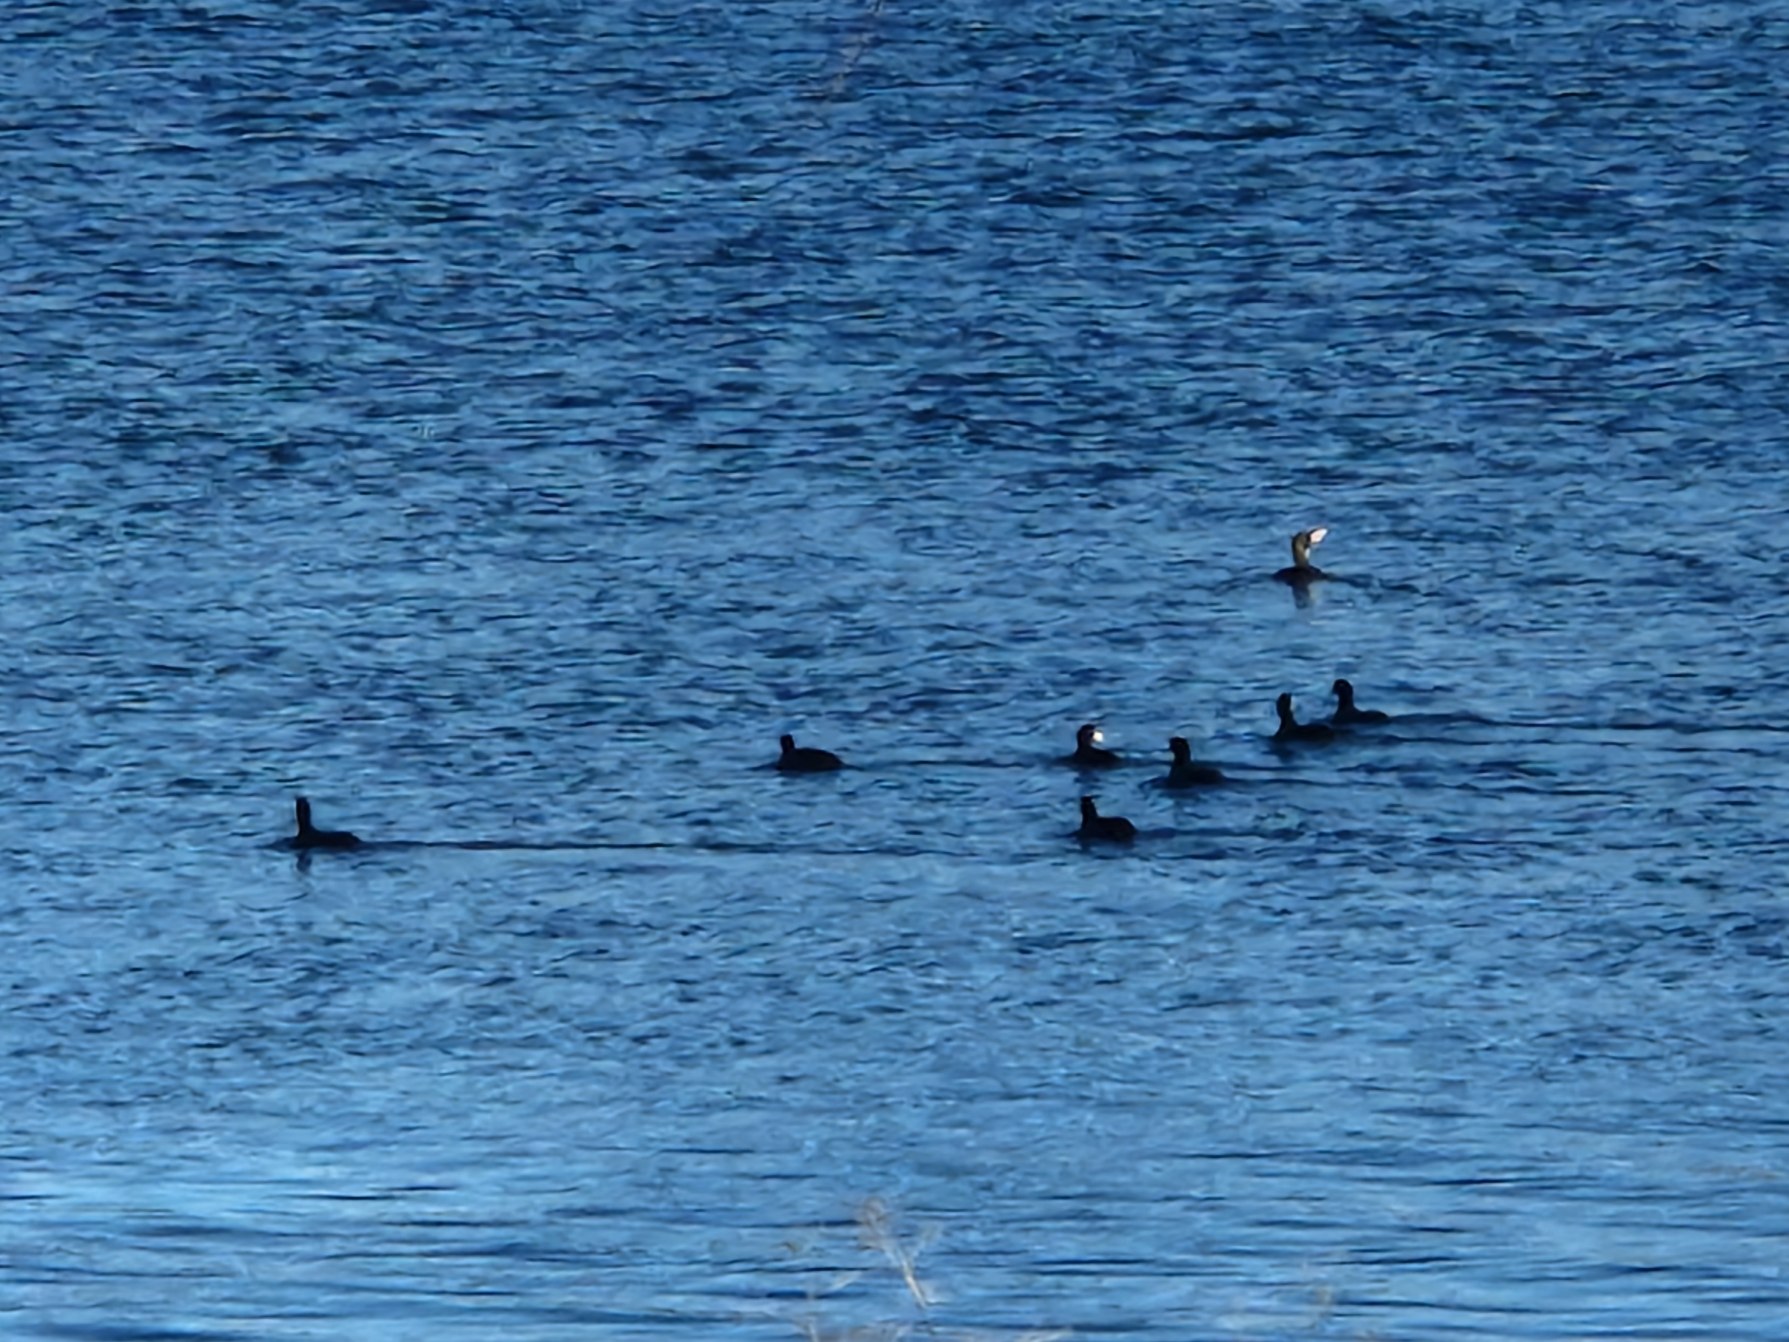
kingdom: Animalia
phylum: Chordata
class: Aves
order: Gruiformes
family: Rallidae
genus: Fulica
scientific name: Fulica atra
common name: Blishøne
